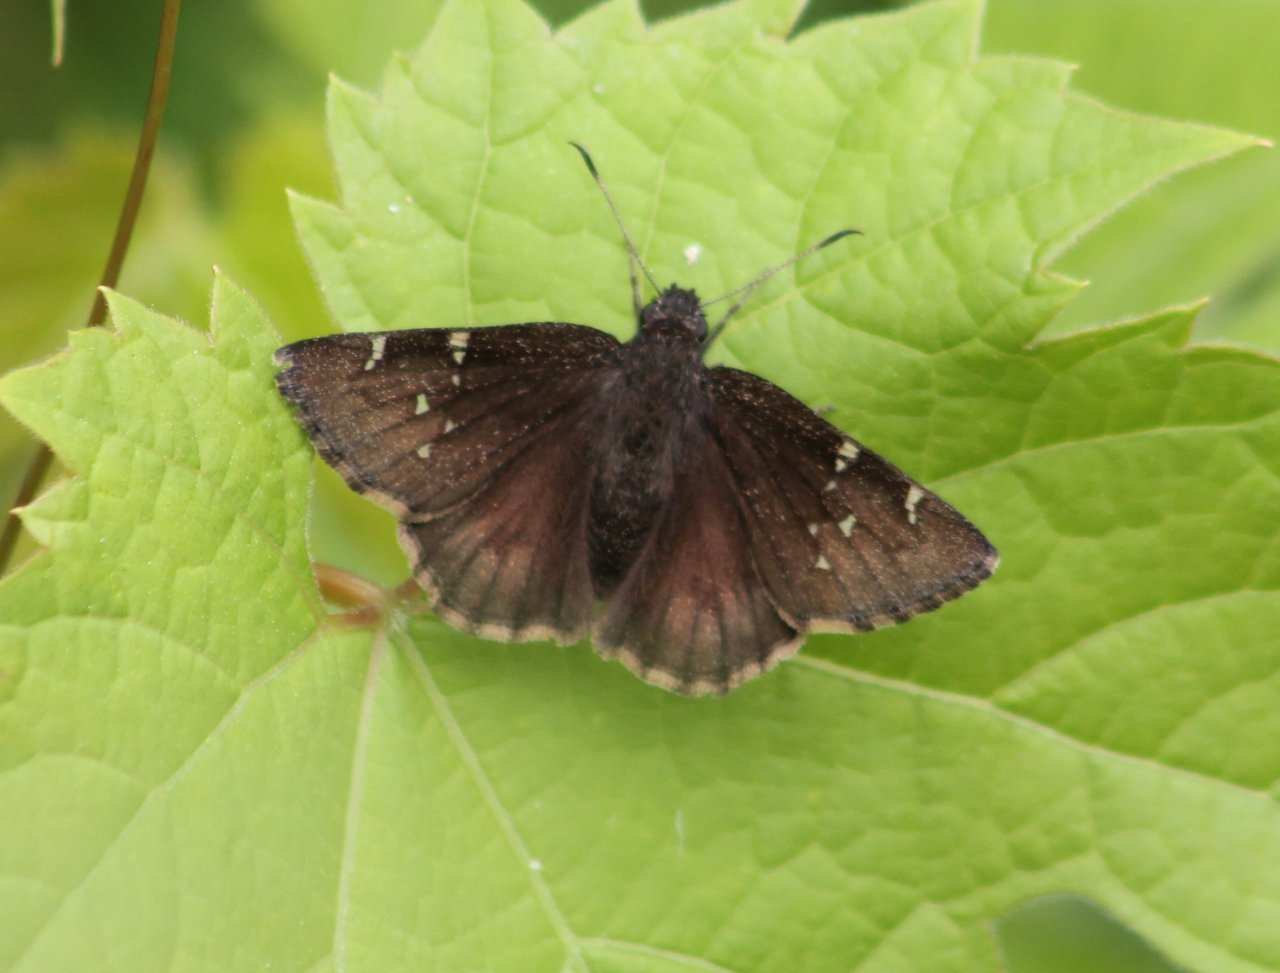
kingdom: Animalia
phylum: Arthropoda
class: Insecta
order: Lepidoptera
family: Hesperiidae
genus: Autochton
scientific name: Autochton
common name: Northern Cloudywing
